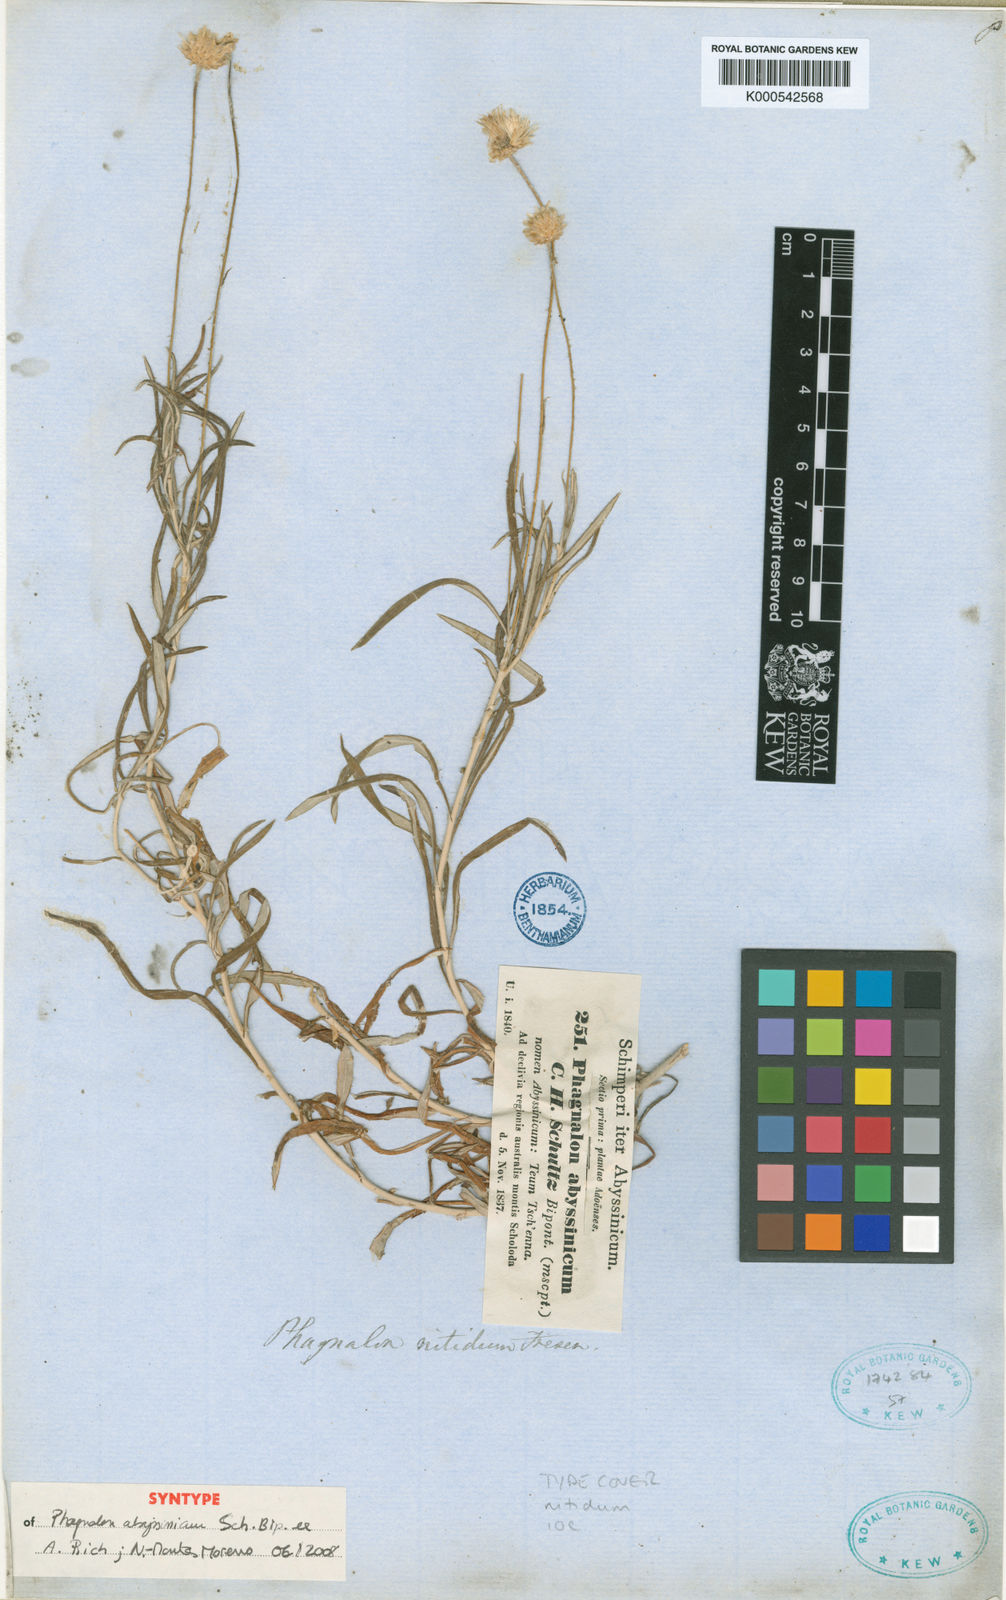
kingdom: Plantae
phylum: Tracheophyta
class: Magnoliopsida
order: Asterales
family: Asteraceae
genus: Phagnalon
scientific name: Phagnalon
